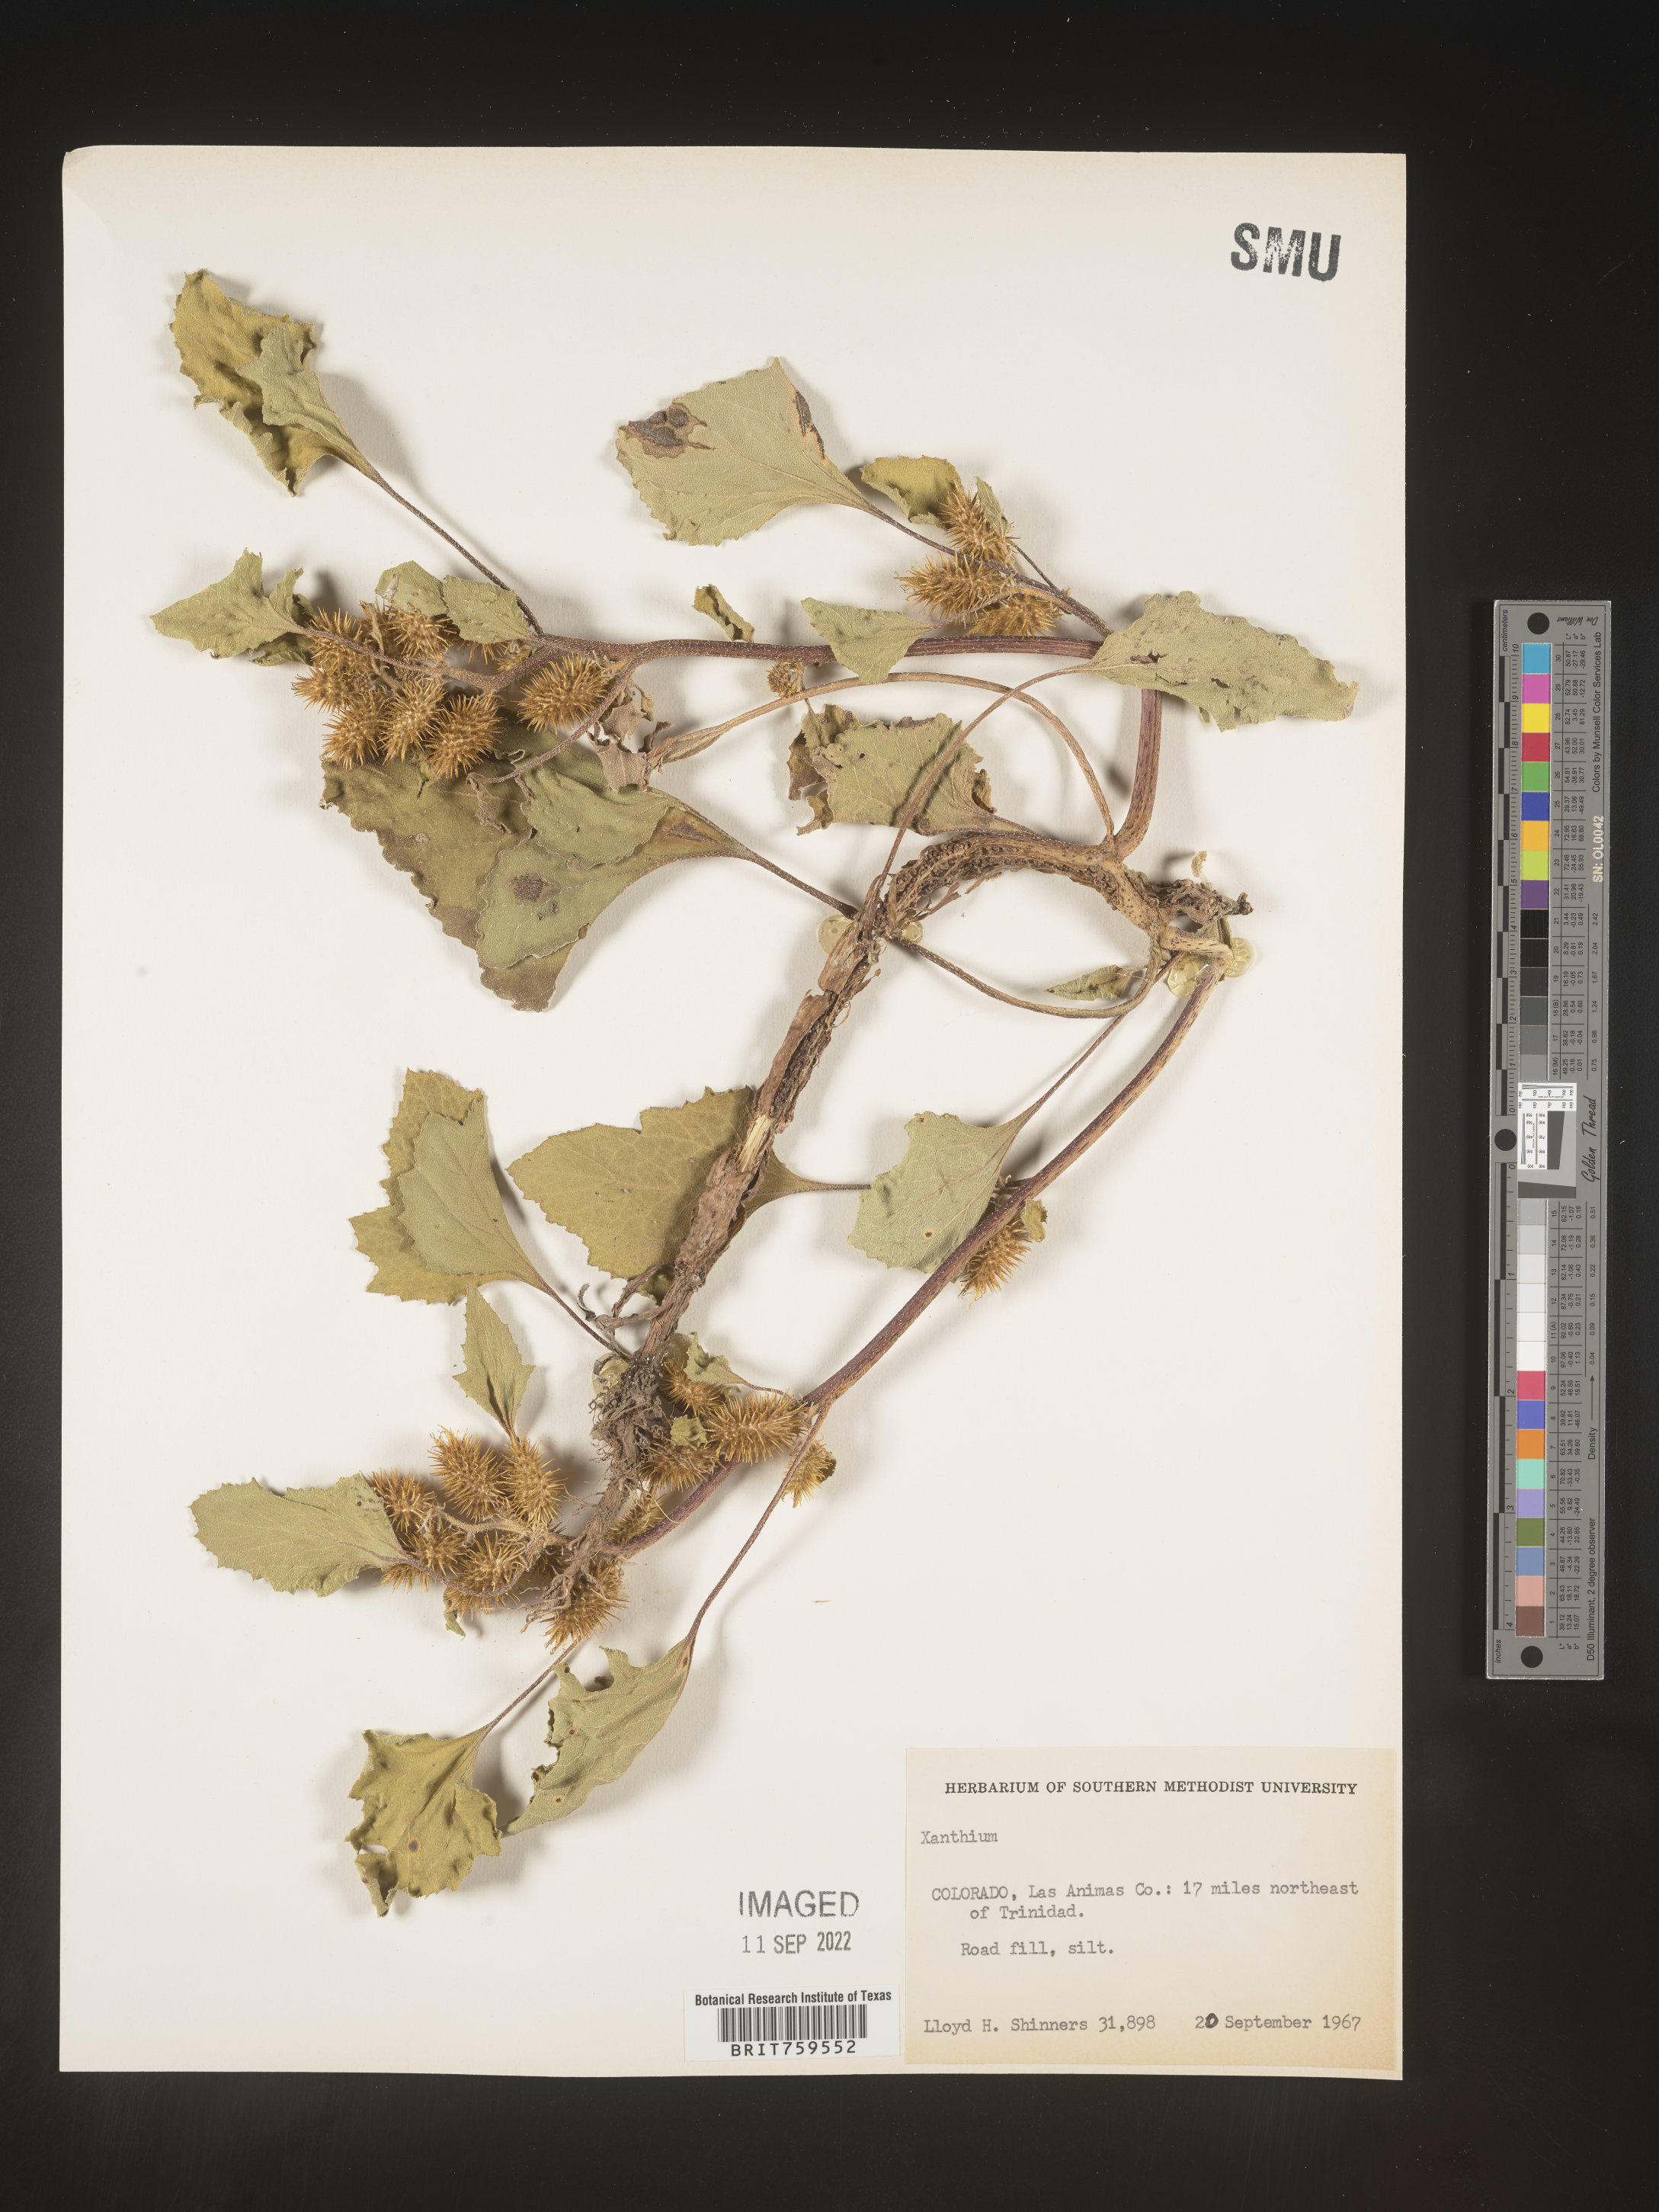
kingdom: Plantae
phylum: Tracheophyta
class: Magnoliopsida
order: Asterales
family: Asteraceae
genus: Xanthium
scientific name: Xanthium
